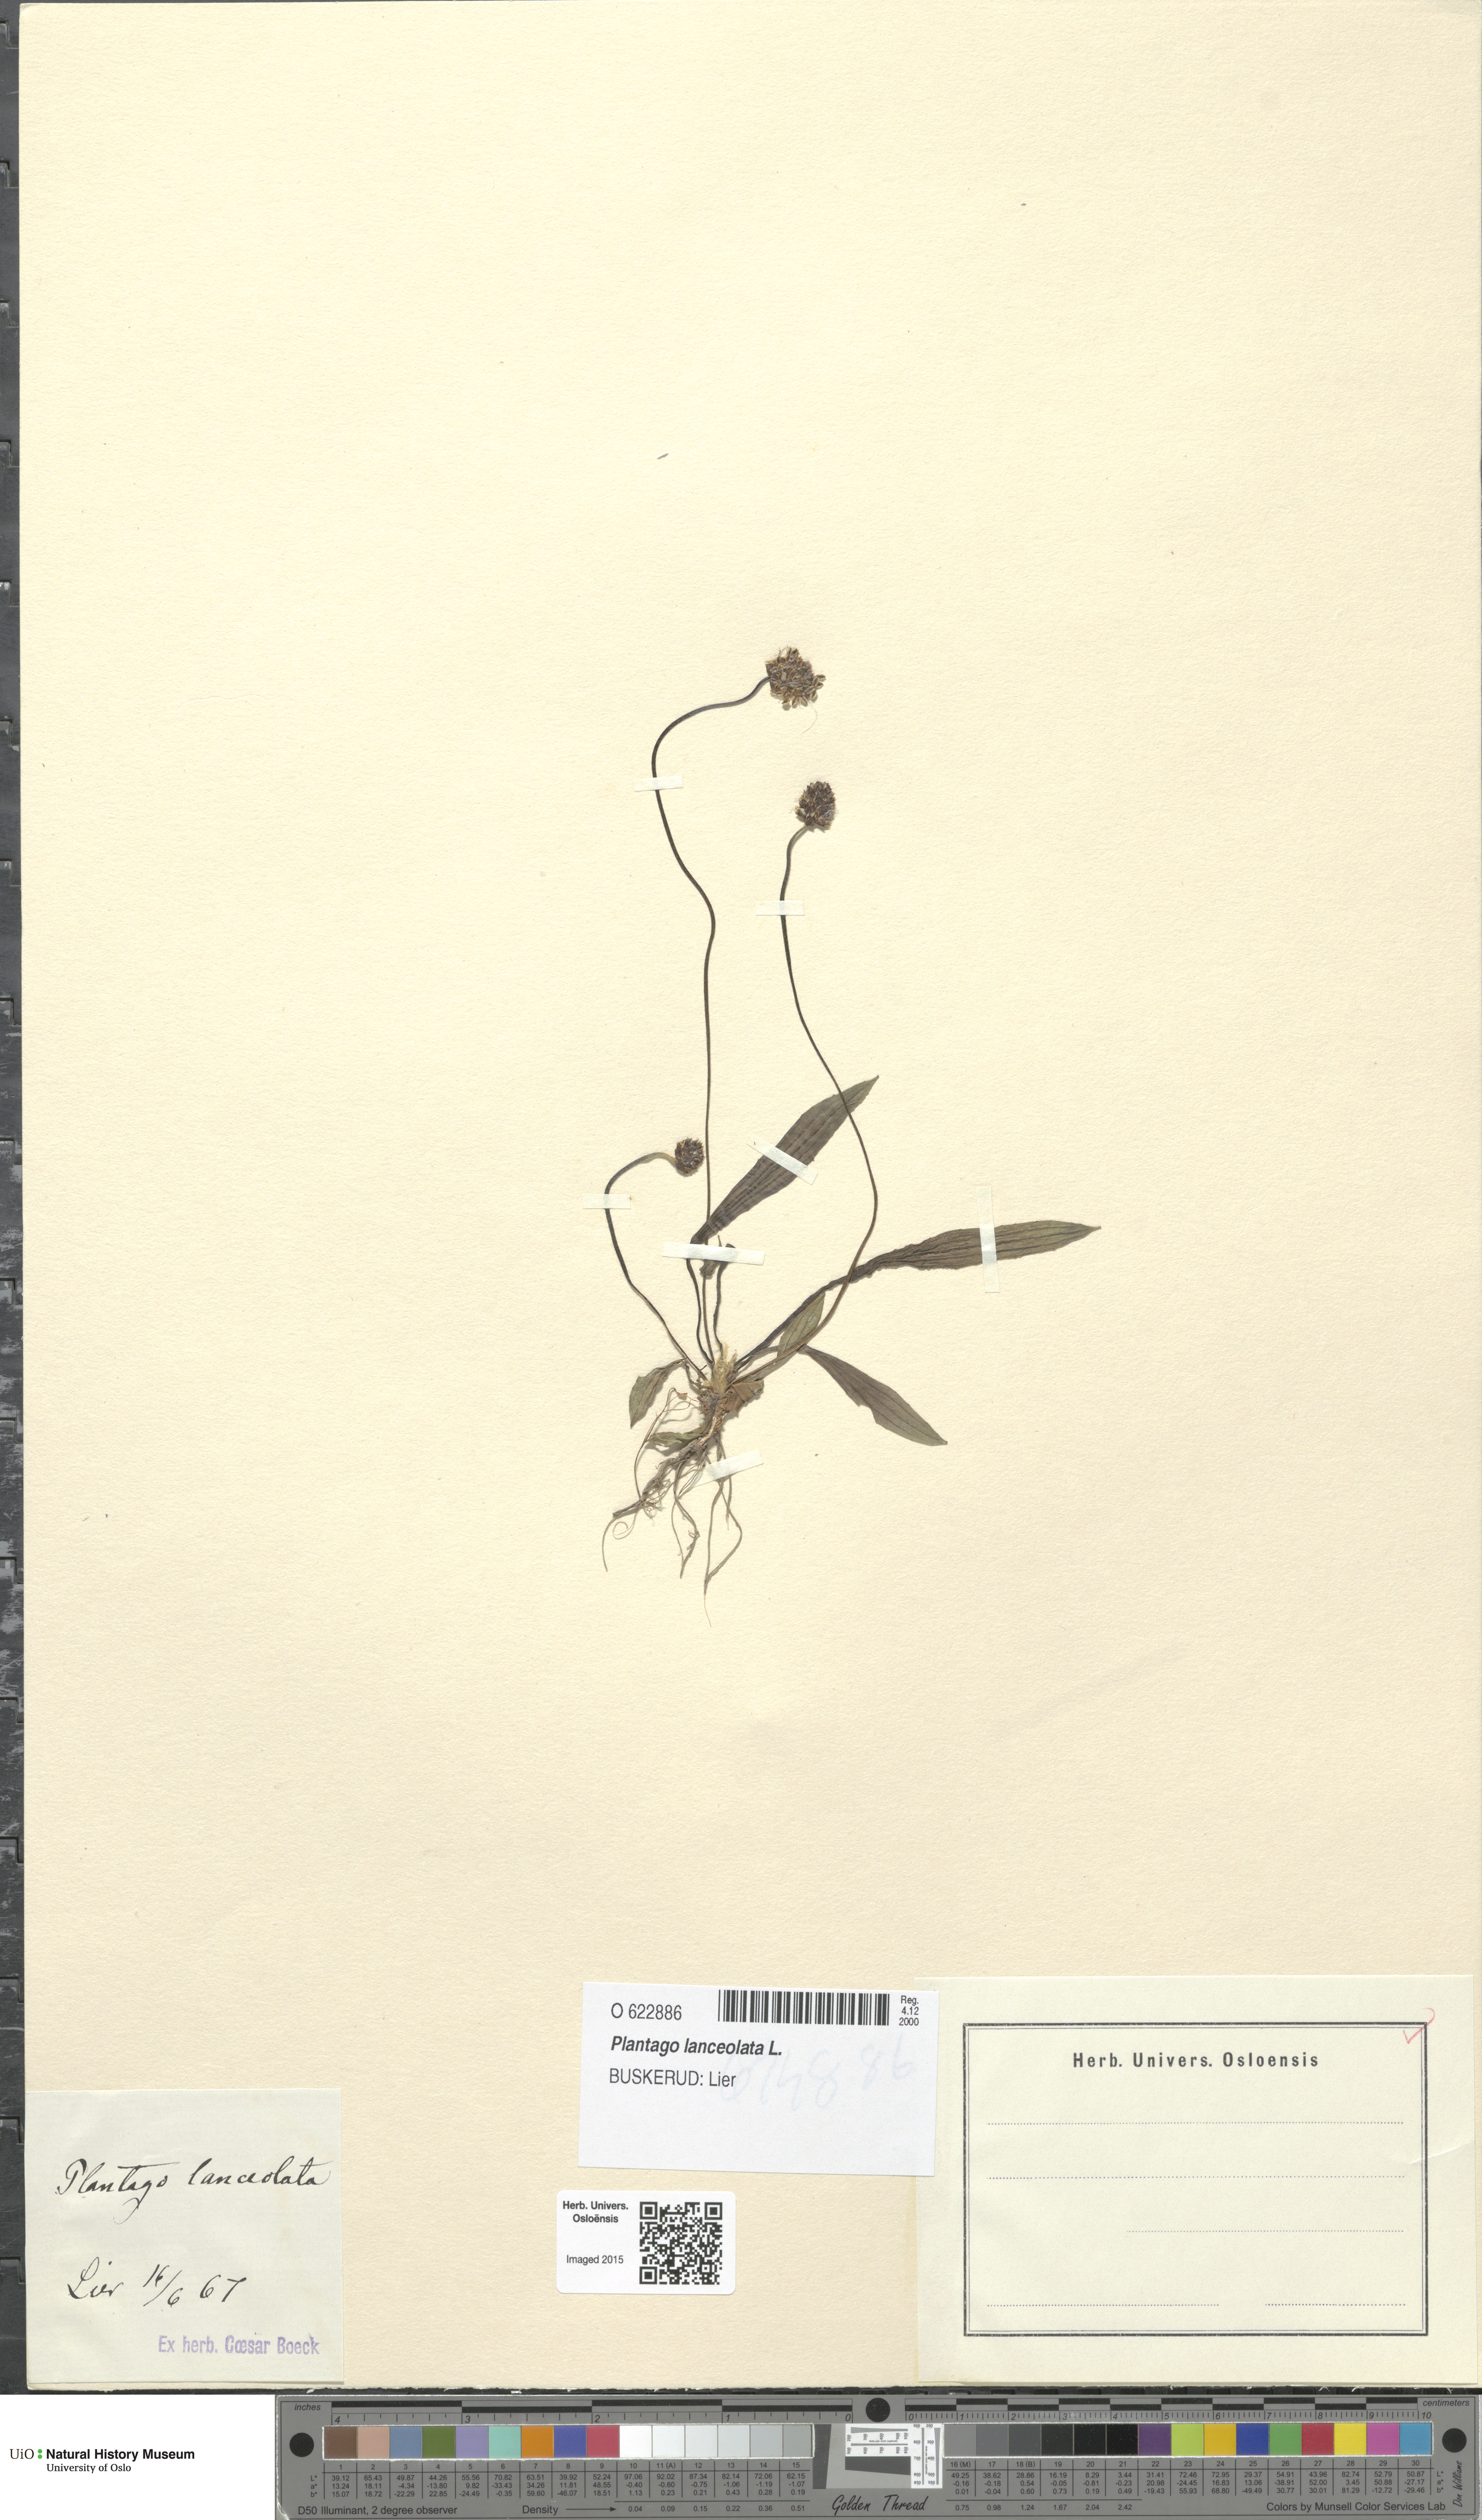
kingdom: Plantae
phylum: Tracheophyta
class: Magnoliopsida
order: Lamiales
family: Plantaginaceae
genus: Plantago
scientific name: Plantago lanceolata
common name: Ribwort plantain
